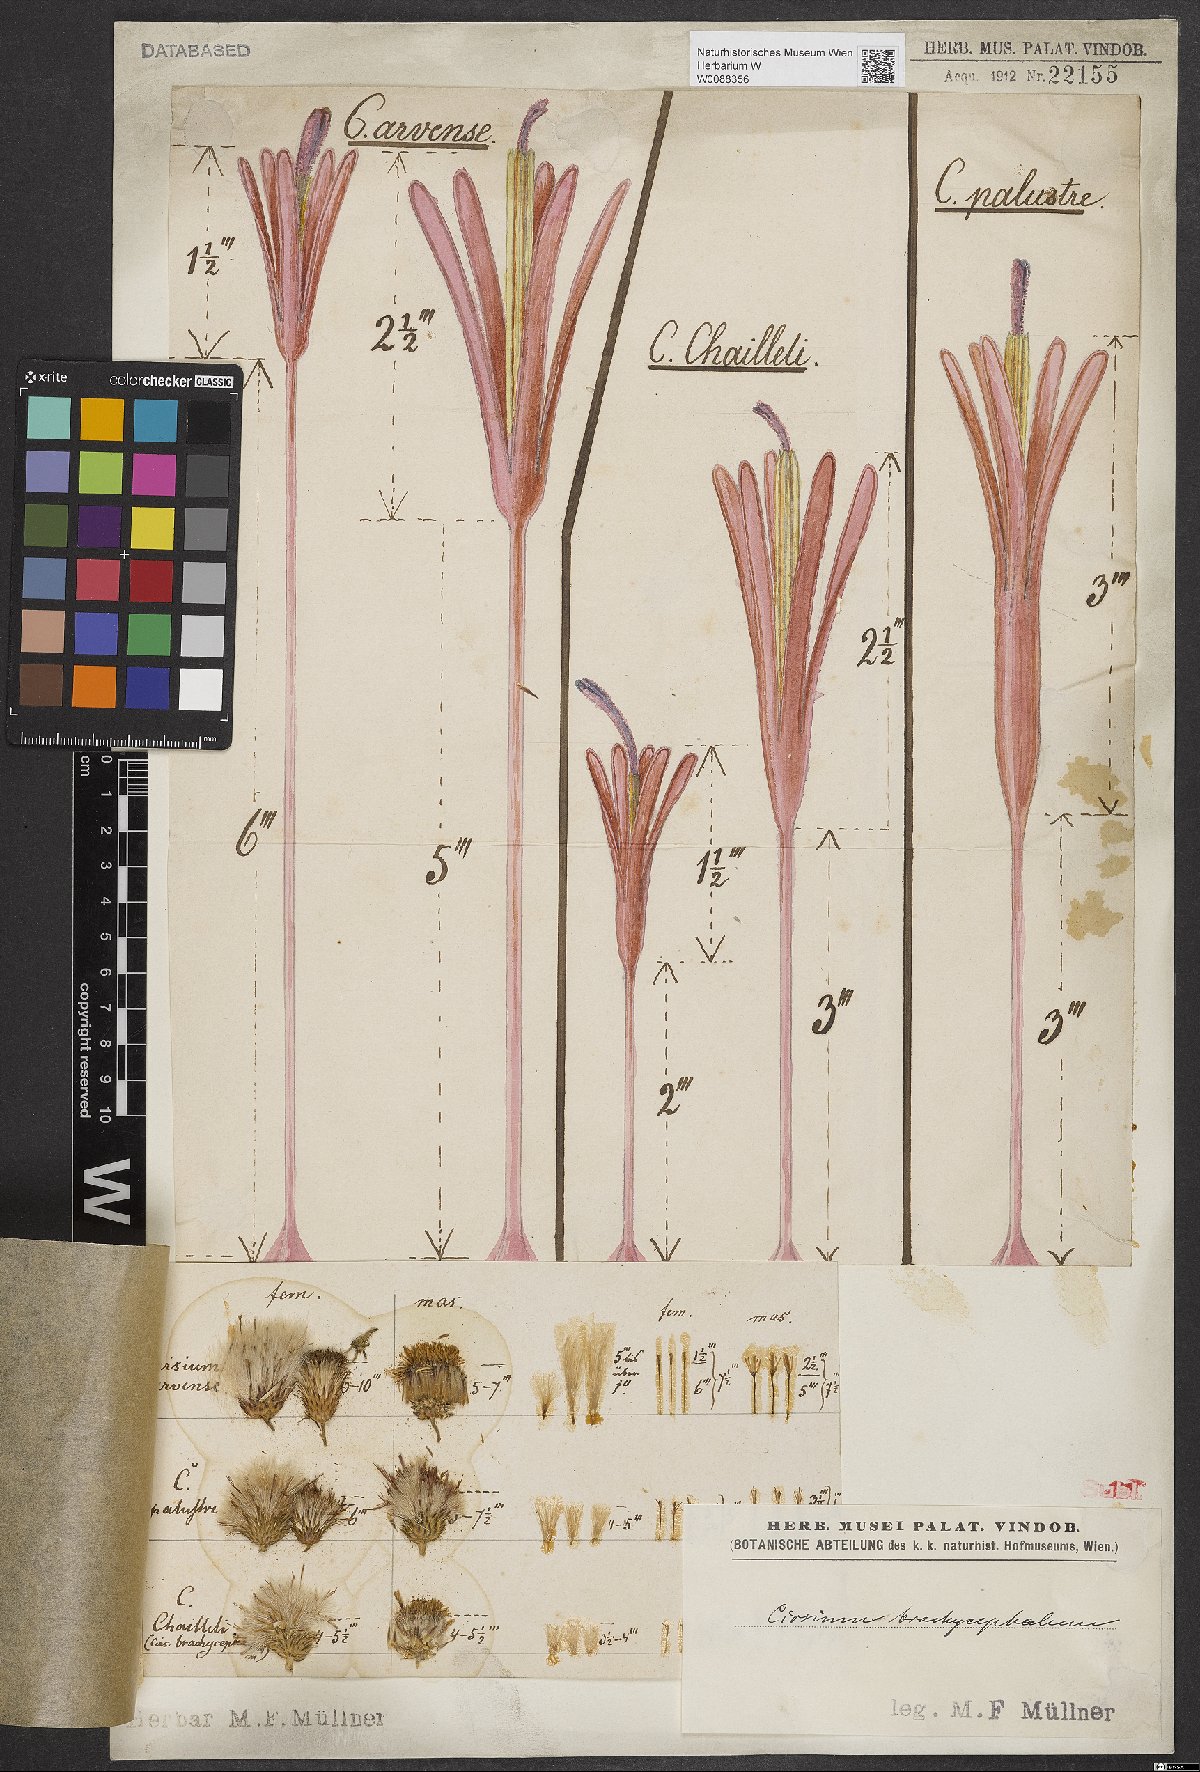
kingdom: Plantae
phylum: Tracheophyta
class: Magnoliopsida
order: Asterales
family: Asteraceae
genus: Cirsium
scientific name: Cirsium brachycephalum
